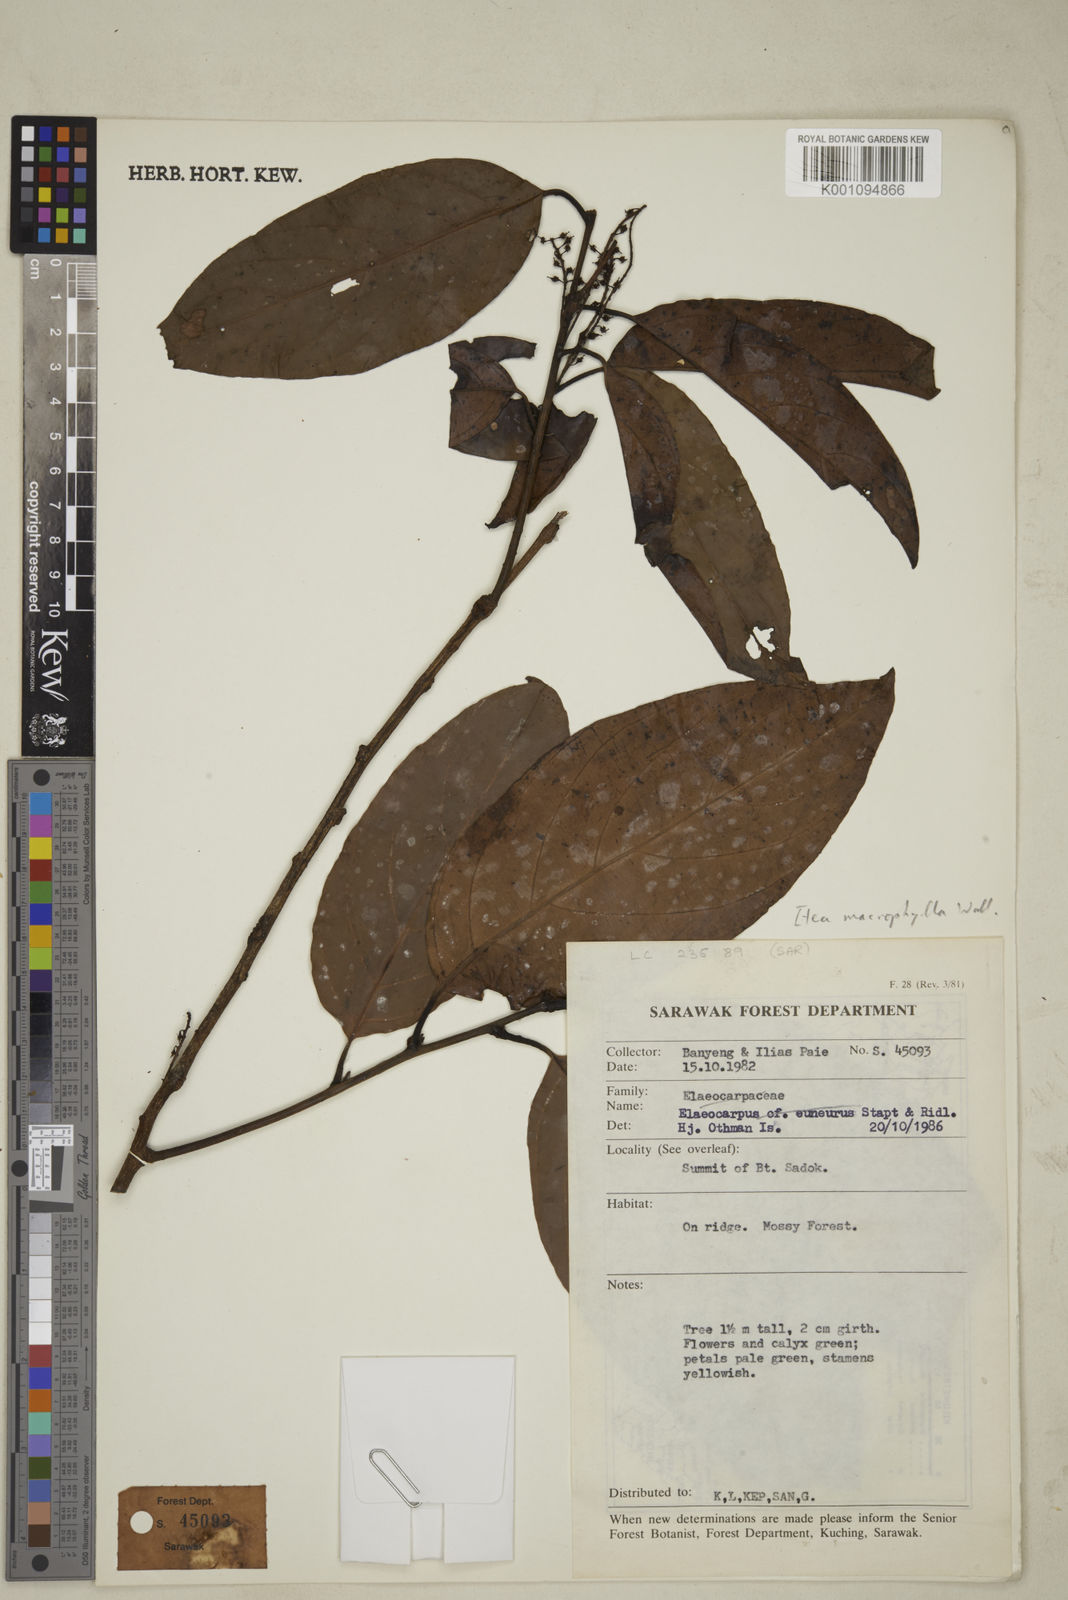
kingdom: Plantae
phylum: Tracheophyta
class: Magnoliopsida
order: Saxifragales
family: Iteaceae
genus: Itea
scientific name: Itea macrophylla
